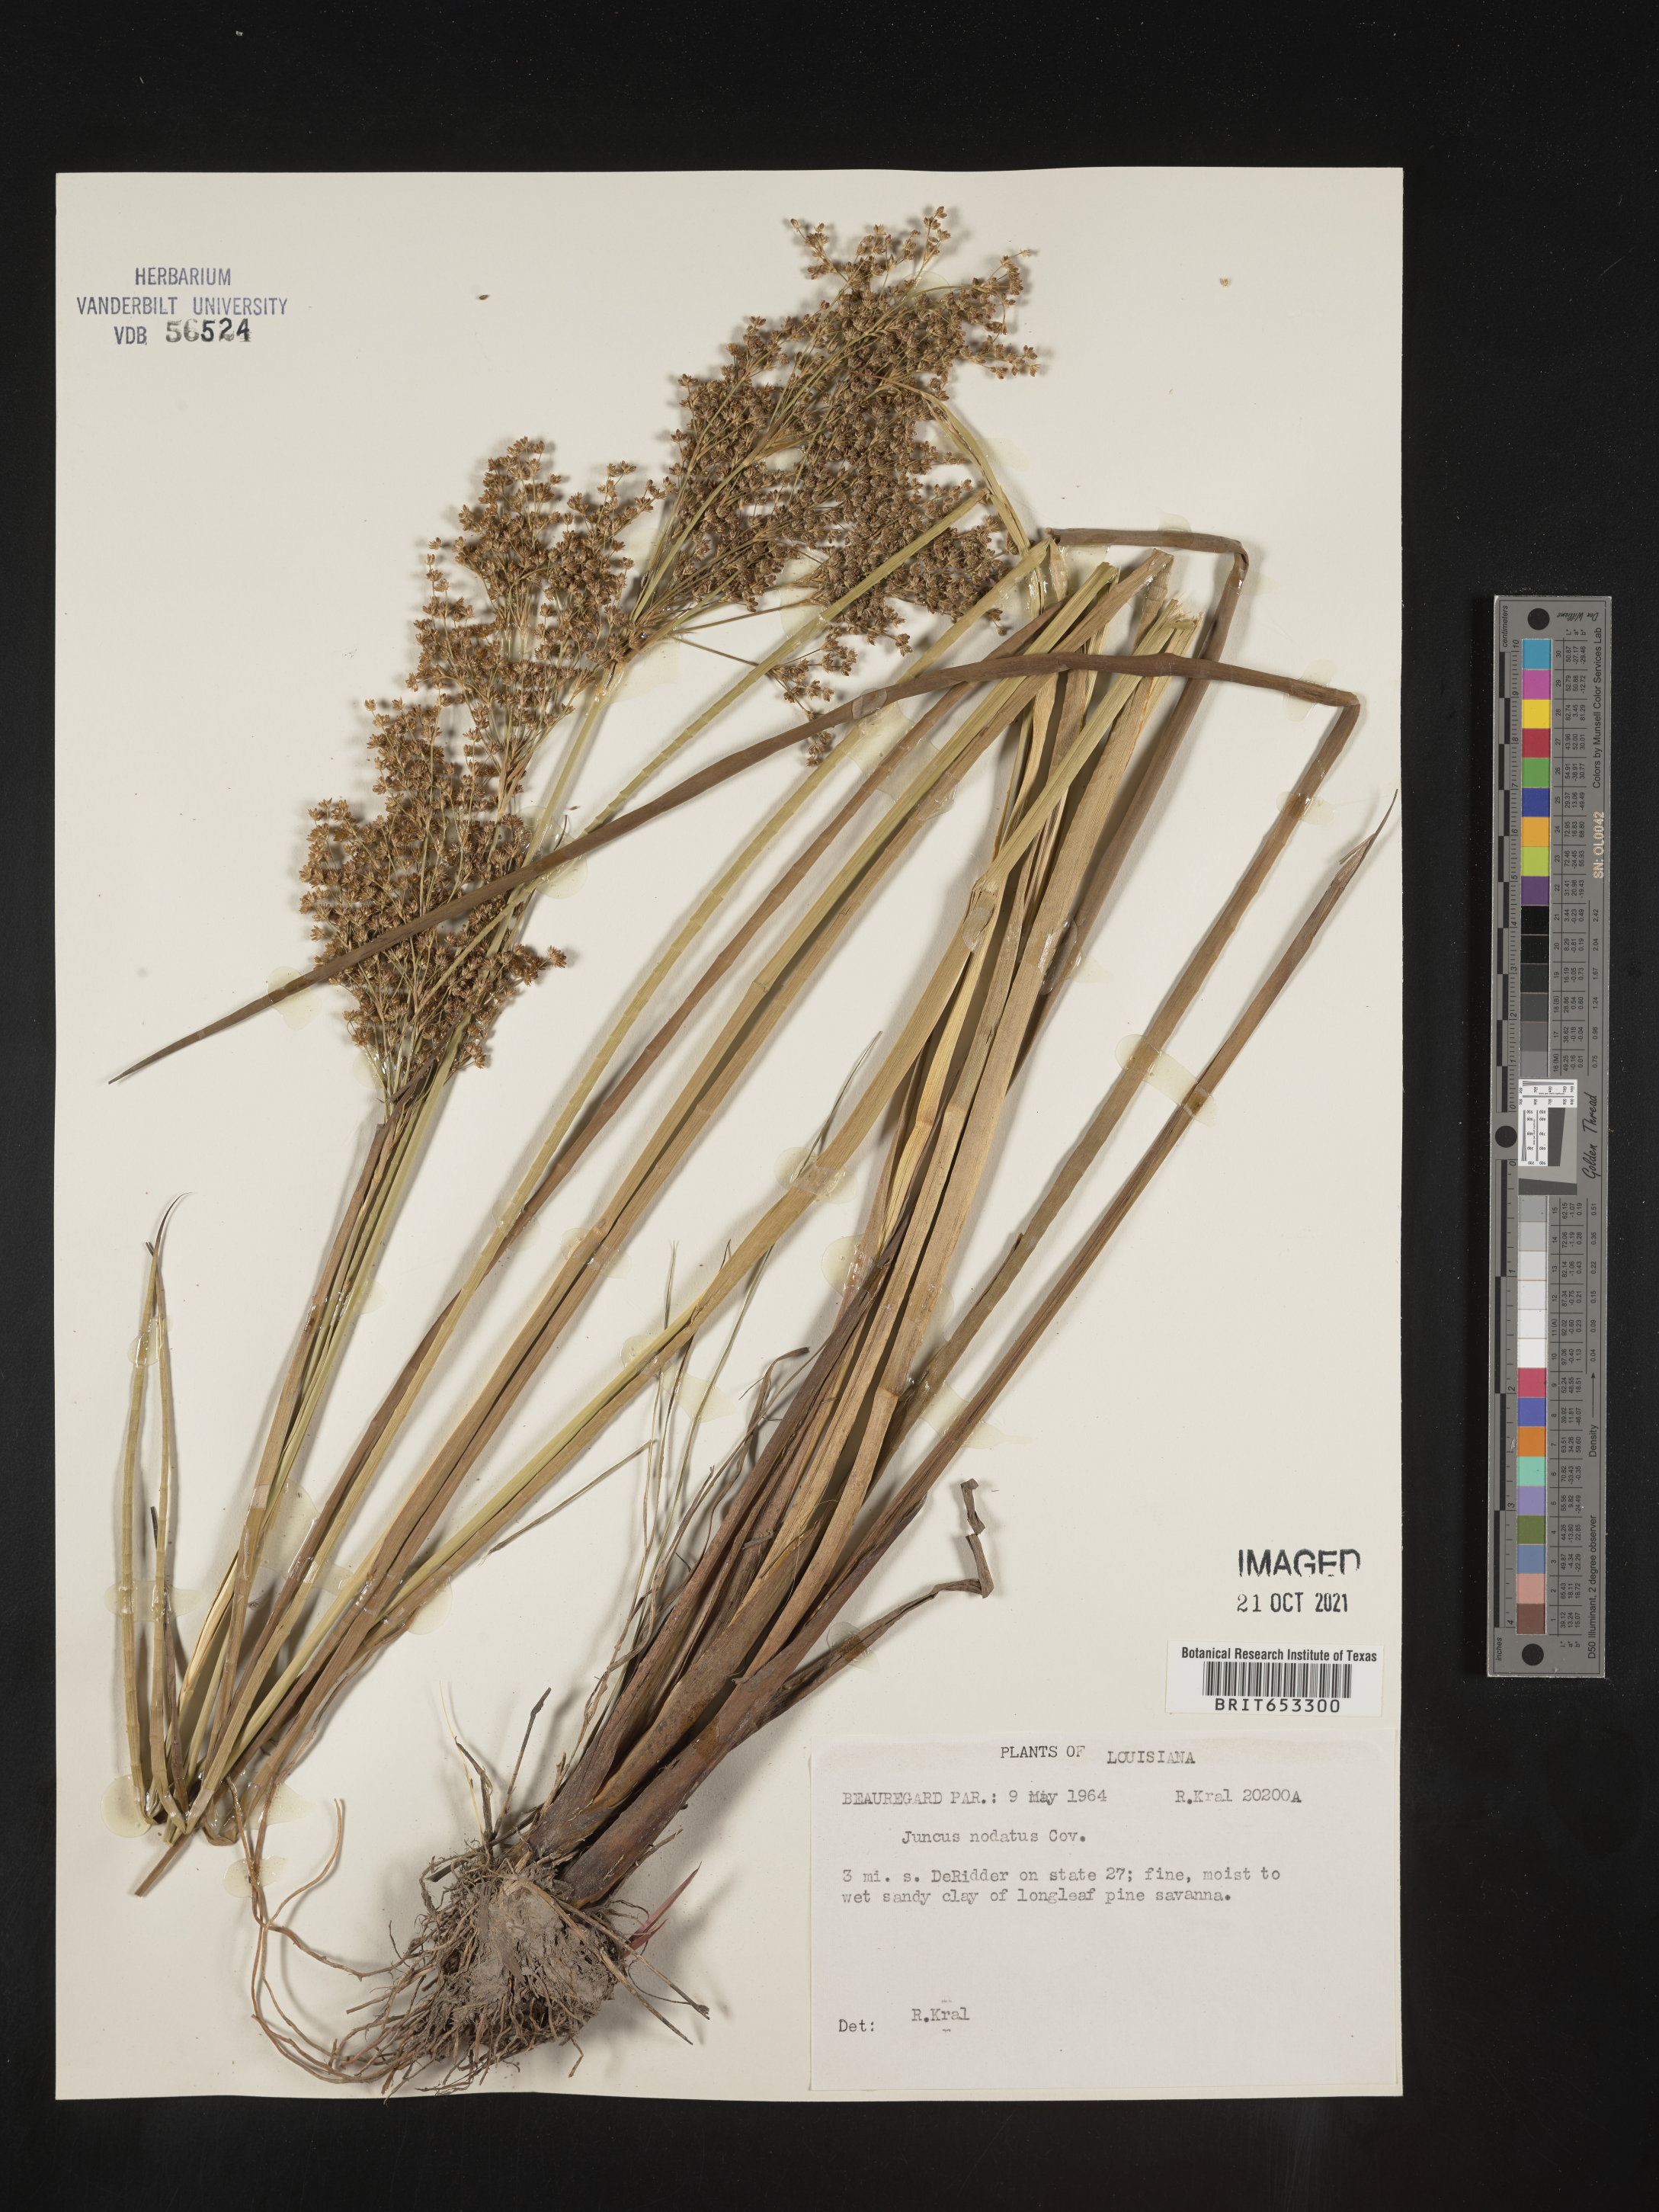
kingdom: Plantae
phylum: Tracheophyta
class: Liliopsida
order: Poales
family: Juncaceae
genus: Juncus
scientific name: Juncus nodatus
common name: Stout rush
